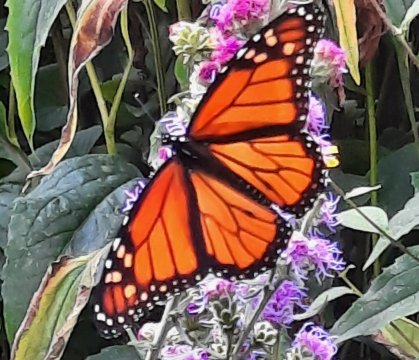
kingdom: Animalia
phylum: Arthropoda
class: Insecta
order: Lepidoptera
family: Nymphalidae
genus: Danaus
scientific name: Danaus plexippus
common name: Monarch
